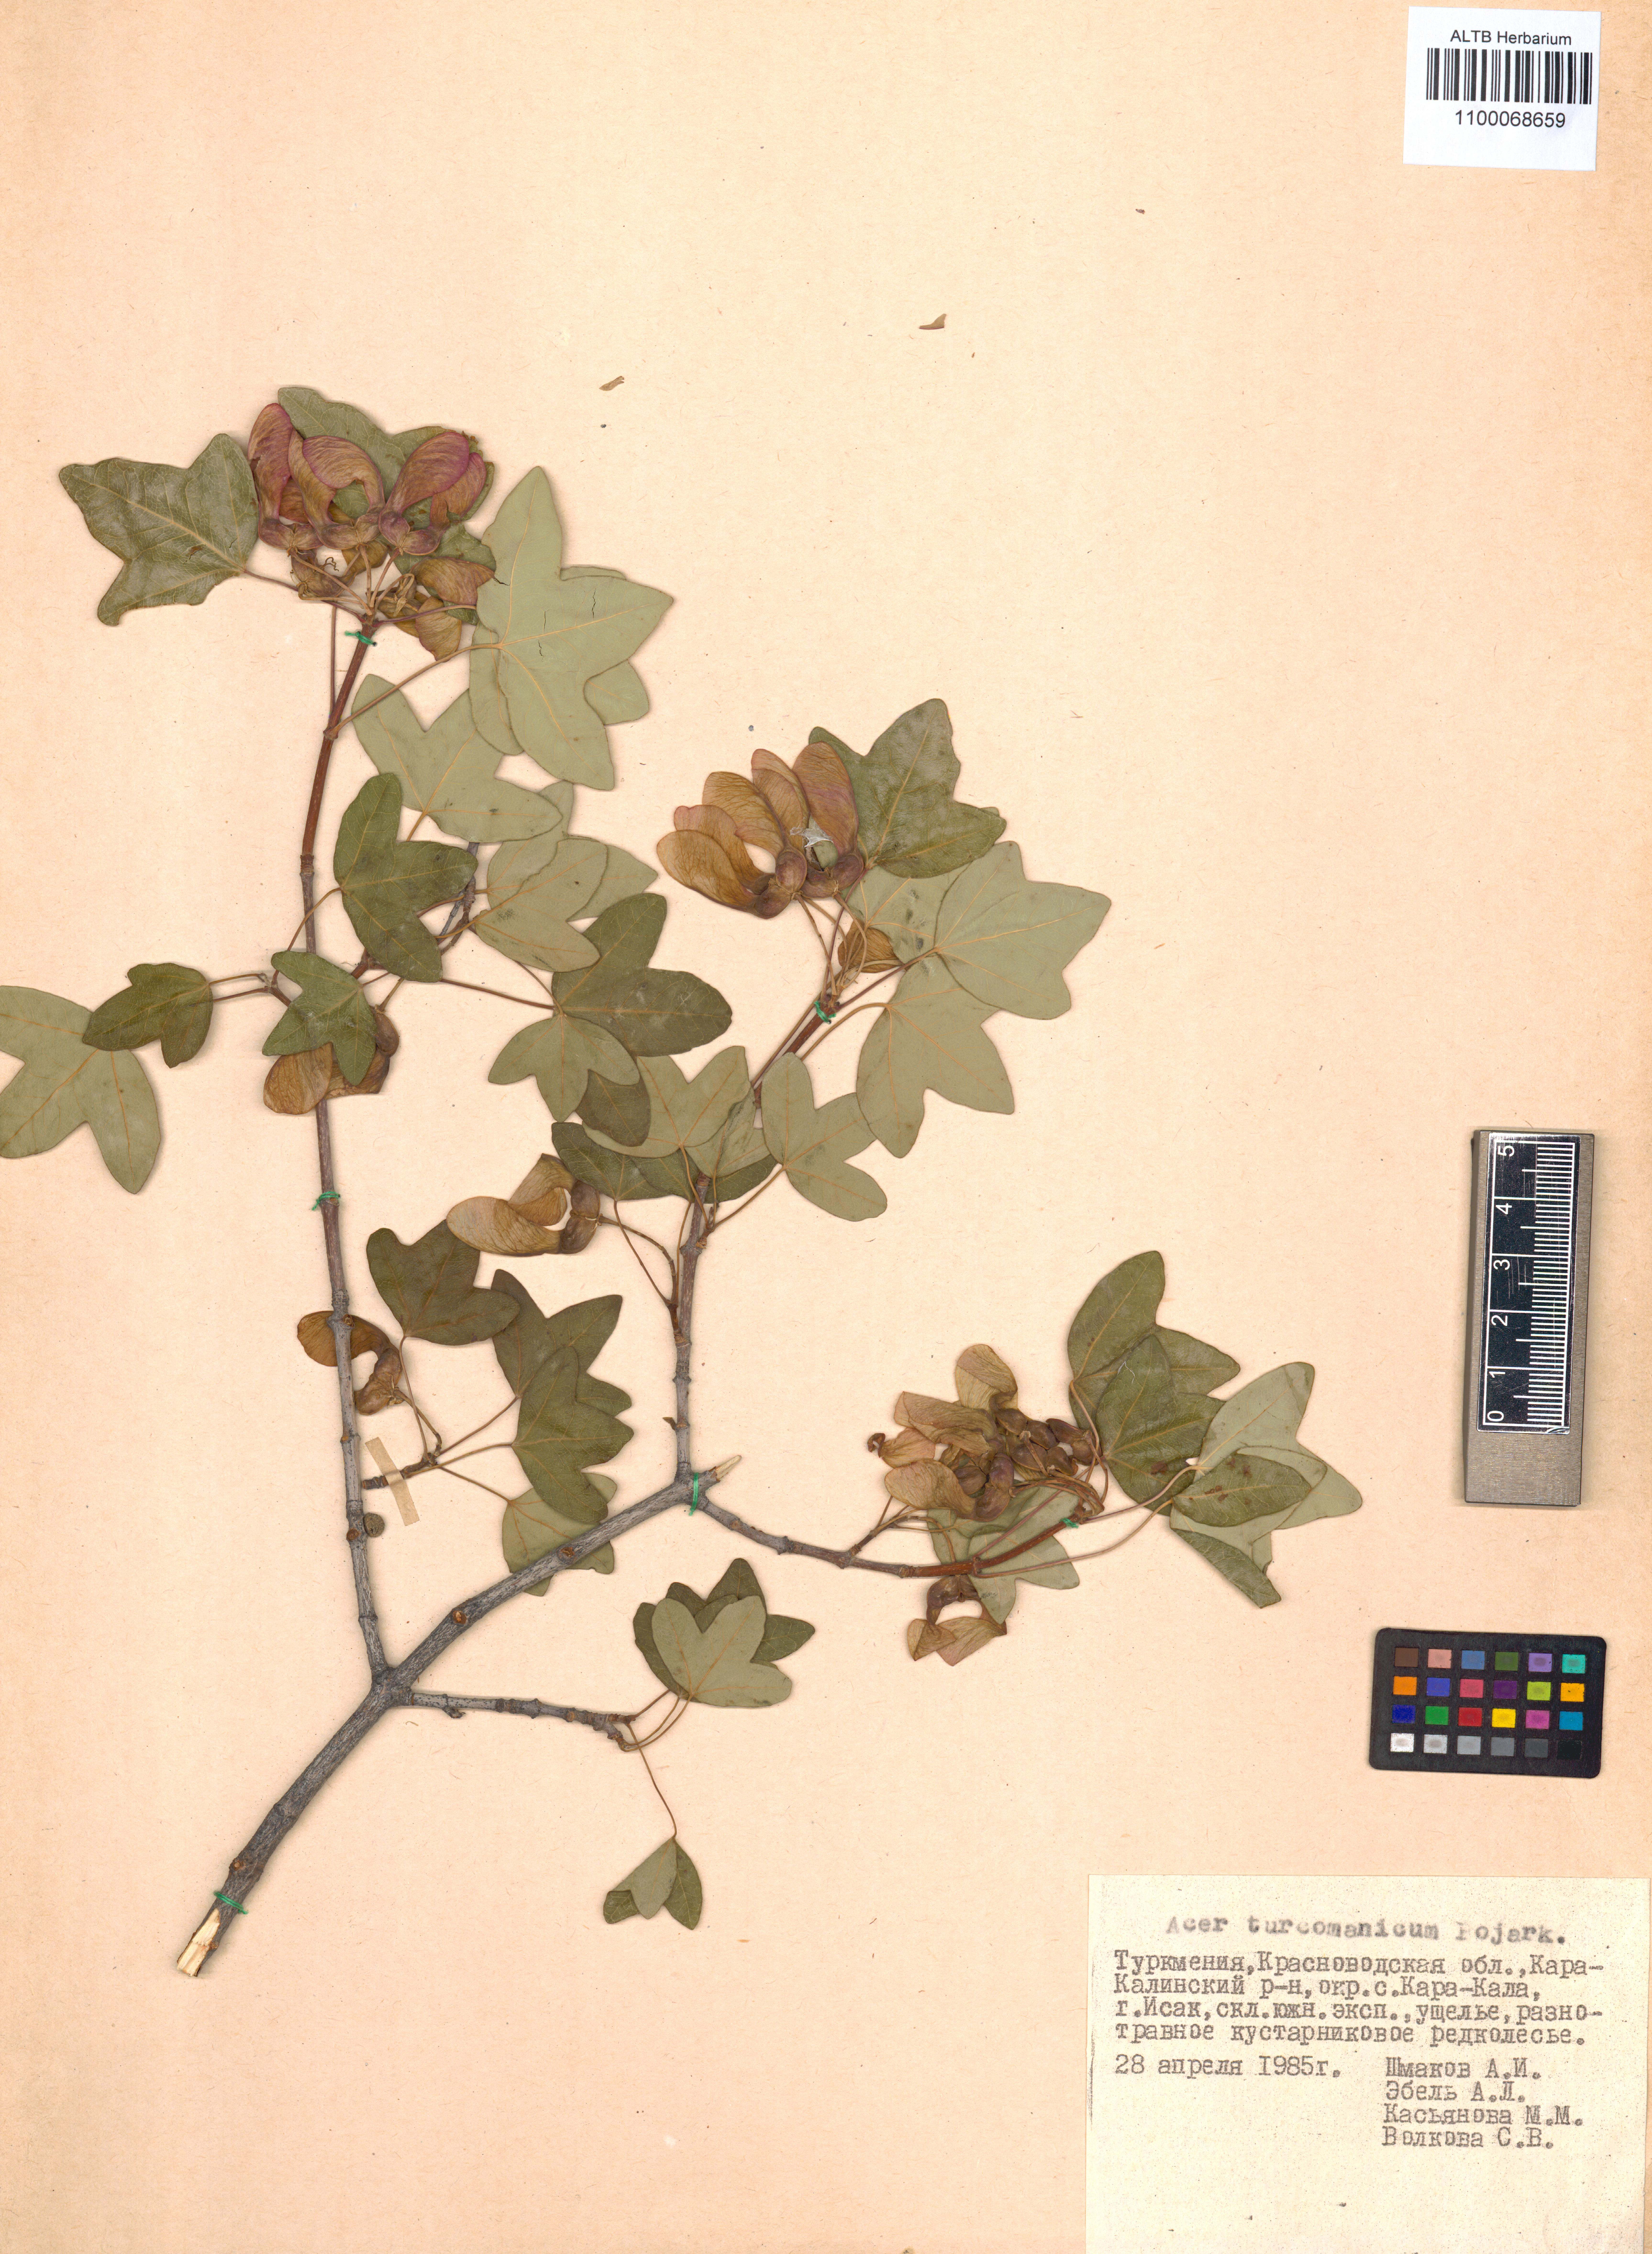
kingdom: Plantae
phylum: Tracheophyta
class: Magnoliopsida
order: Sapindales
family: Sapindaceae
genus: Acer
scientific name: Acer monspessulanum
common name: Montpellier maple
